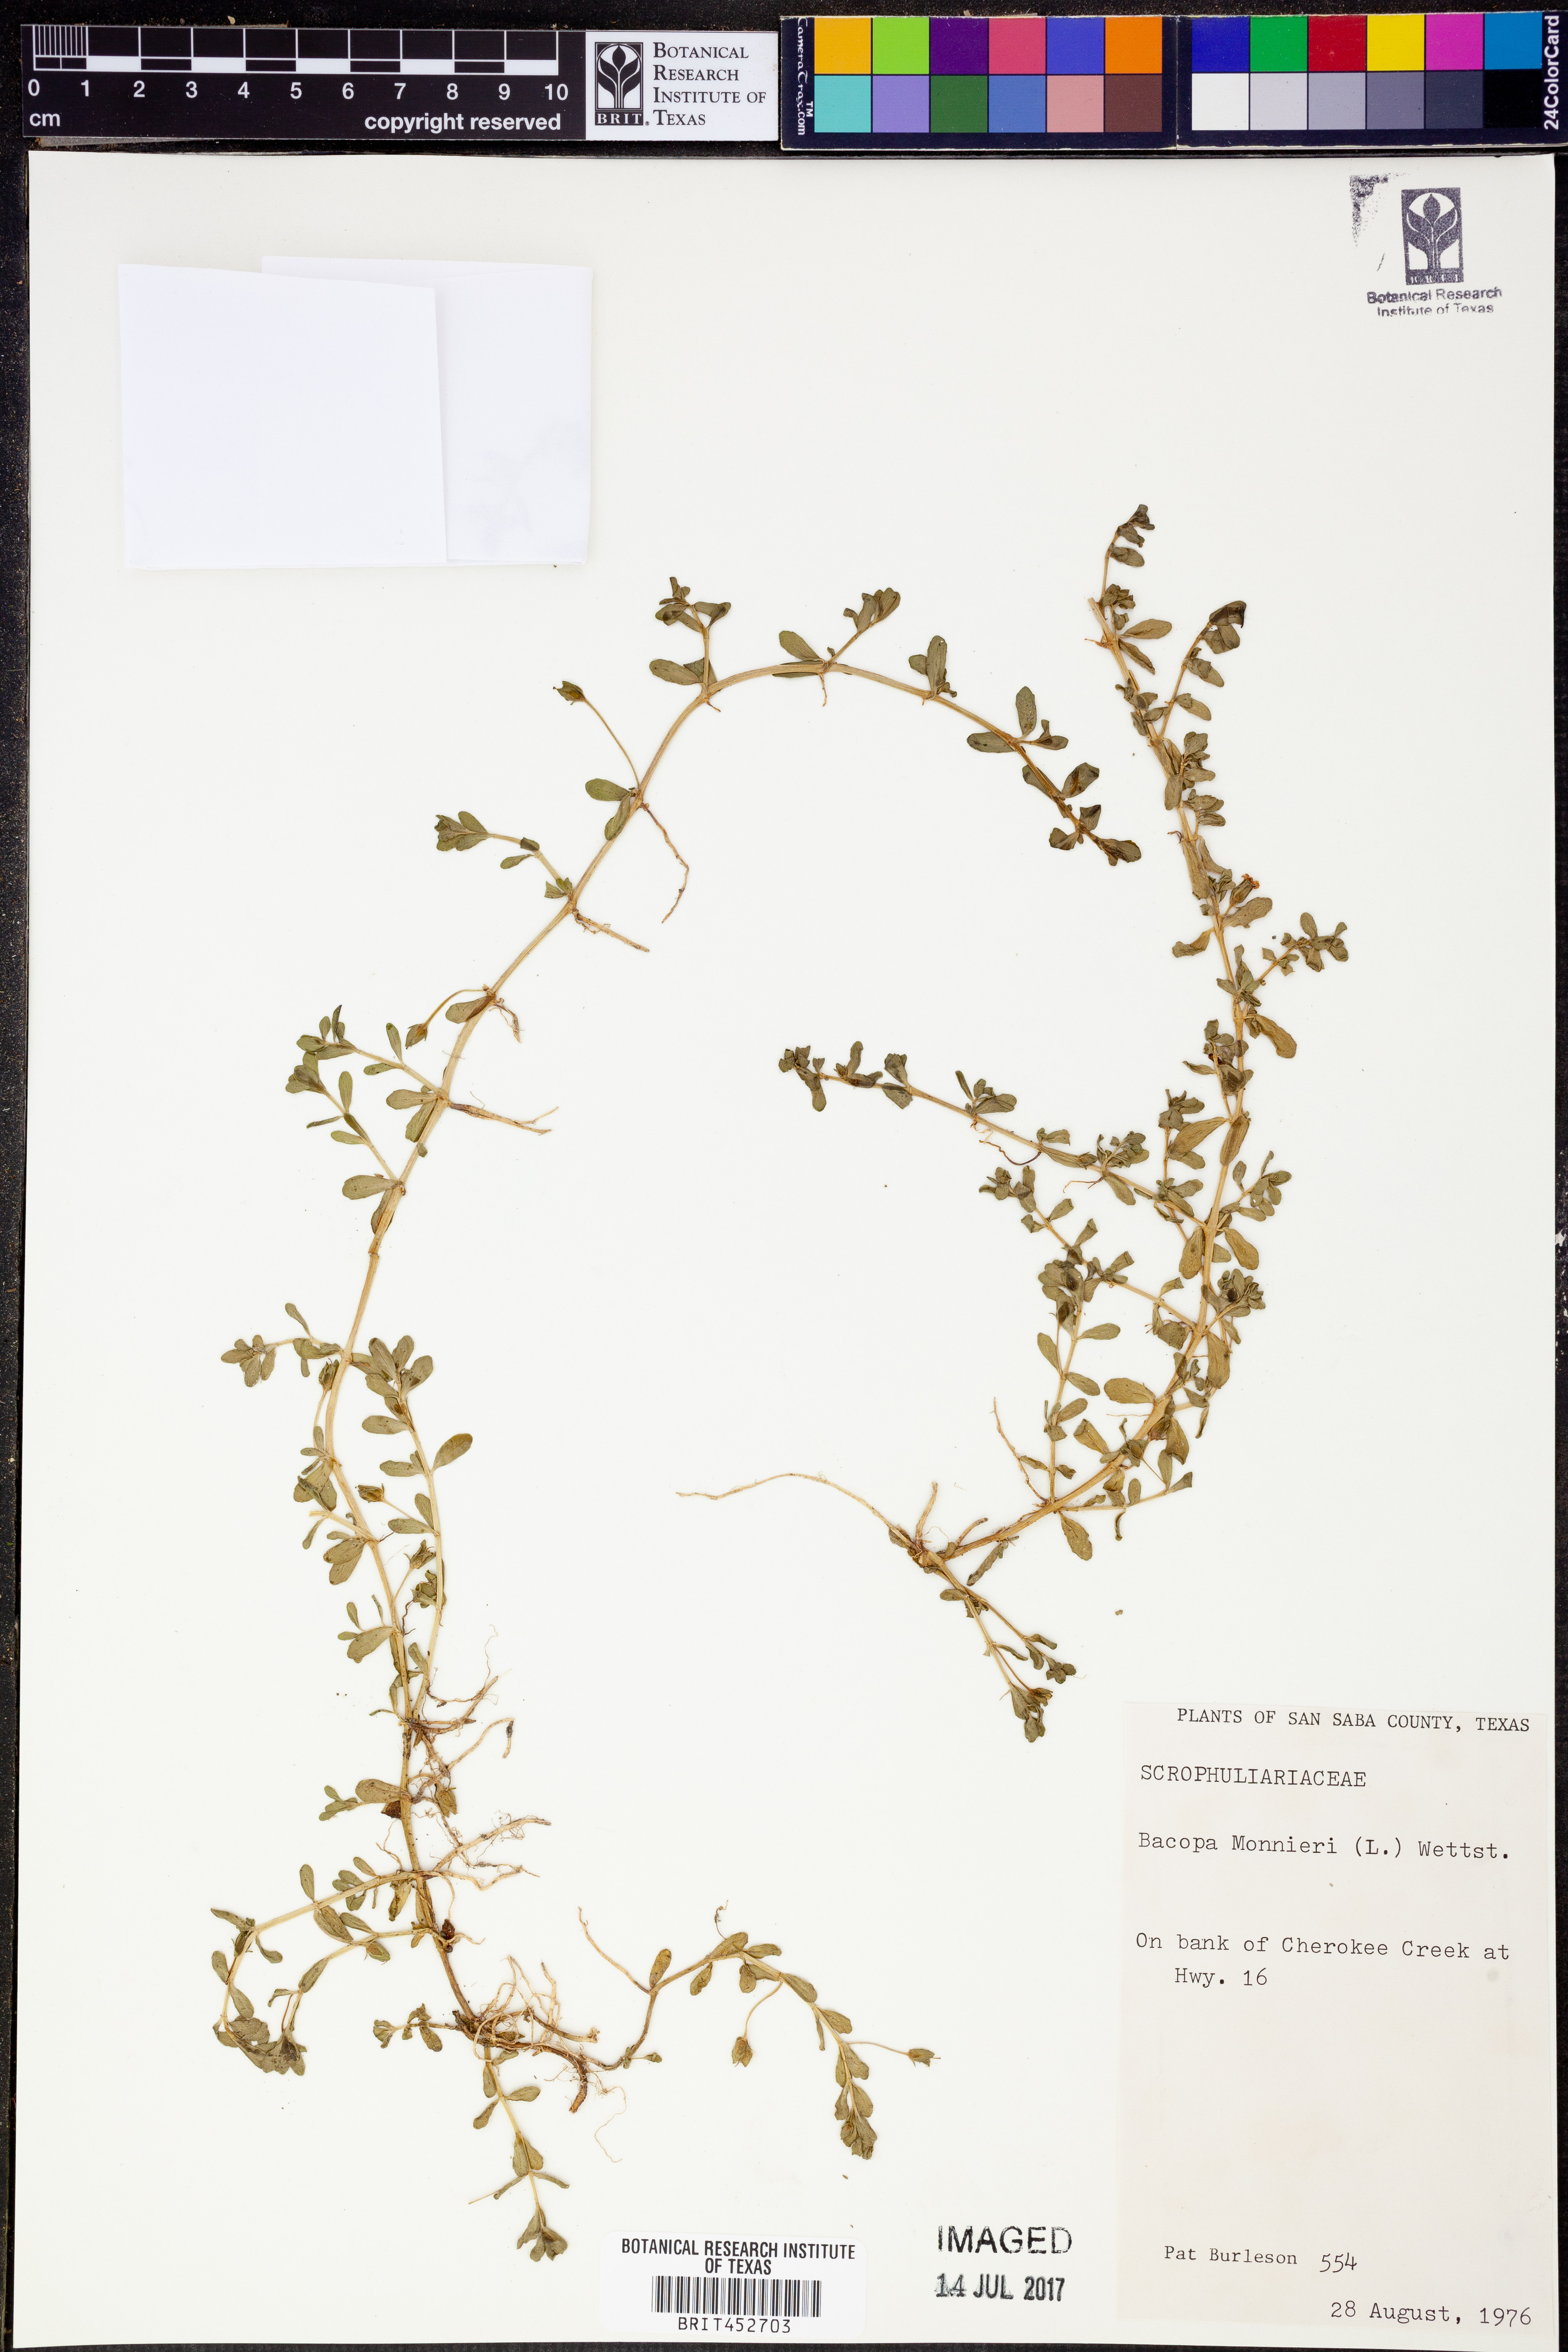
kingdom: Plantae
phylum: Tracheophyta
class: Magnoliopsida
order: Lamiales
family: Plantaginaceae
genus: Bacopa
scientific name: Bacopa monnieri
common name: Indian-pennywort
